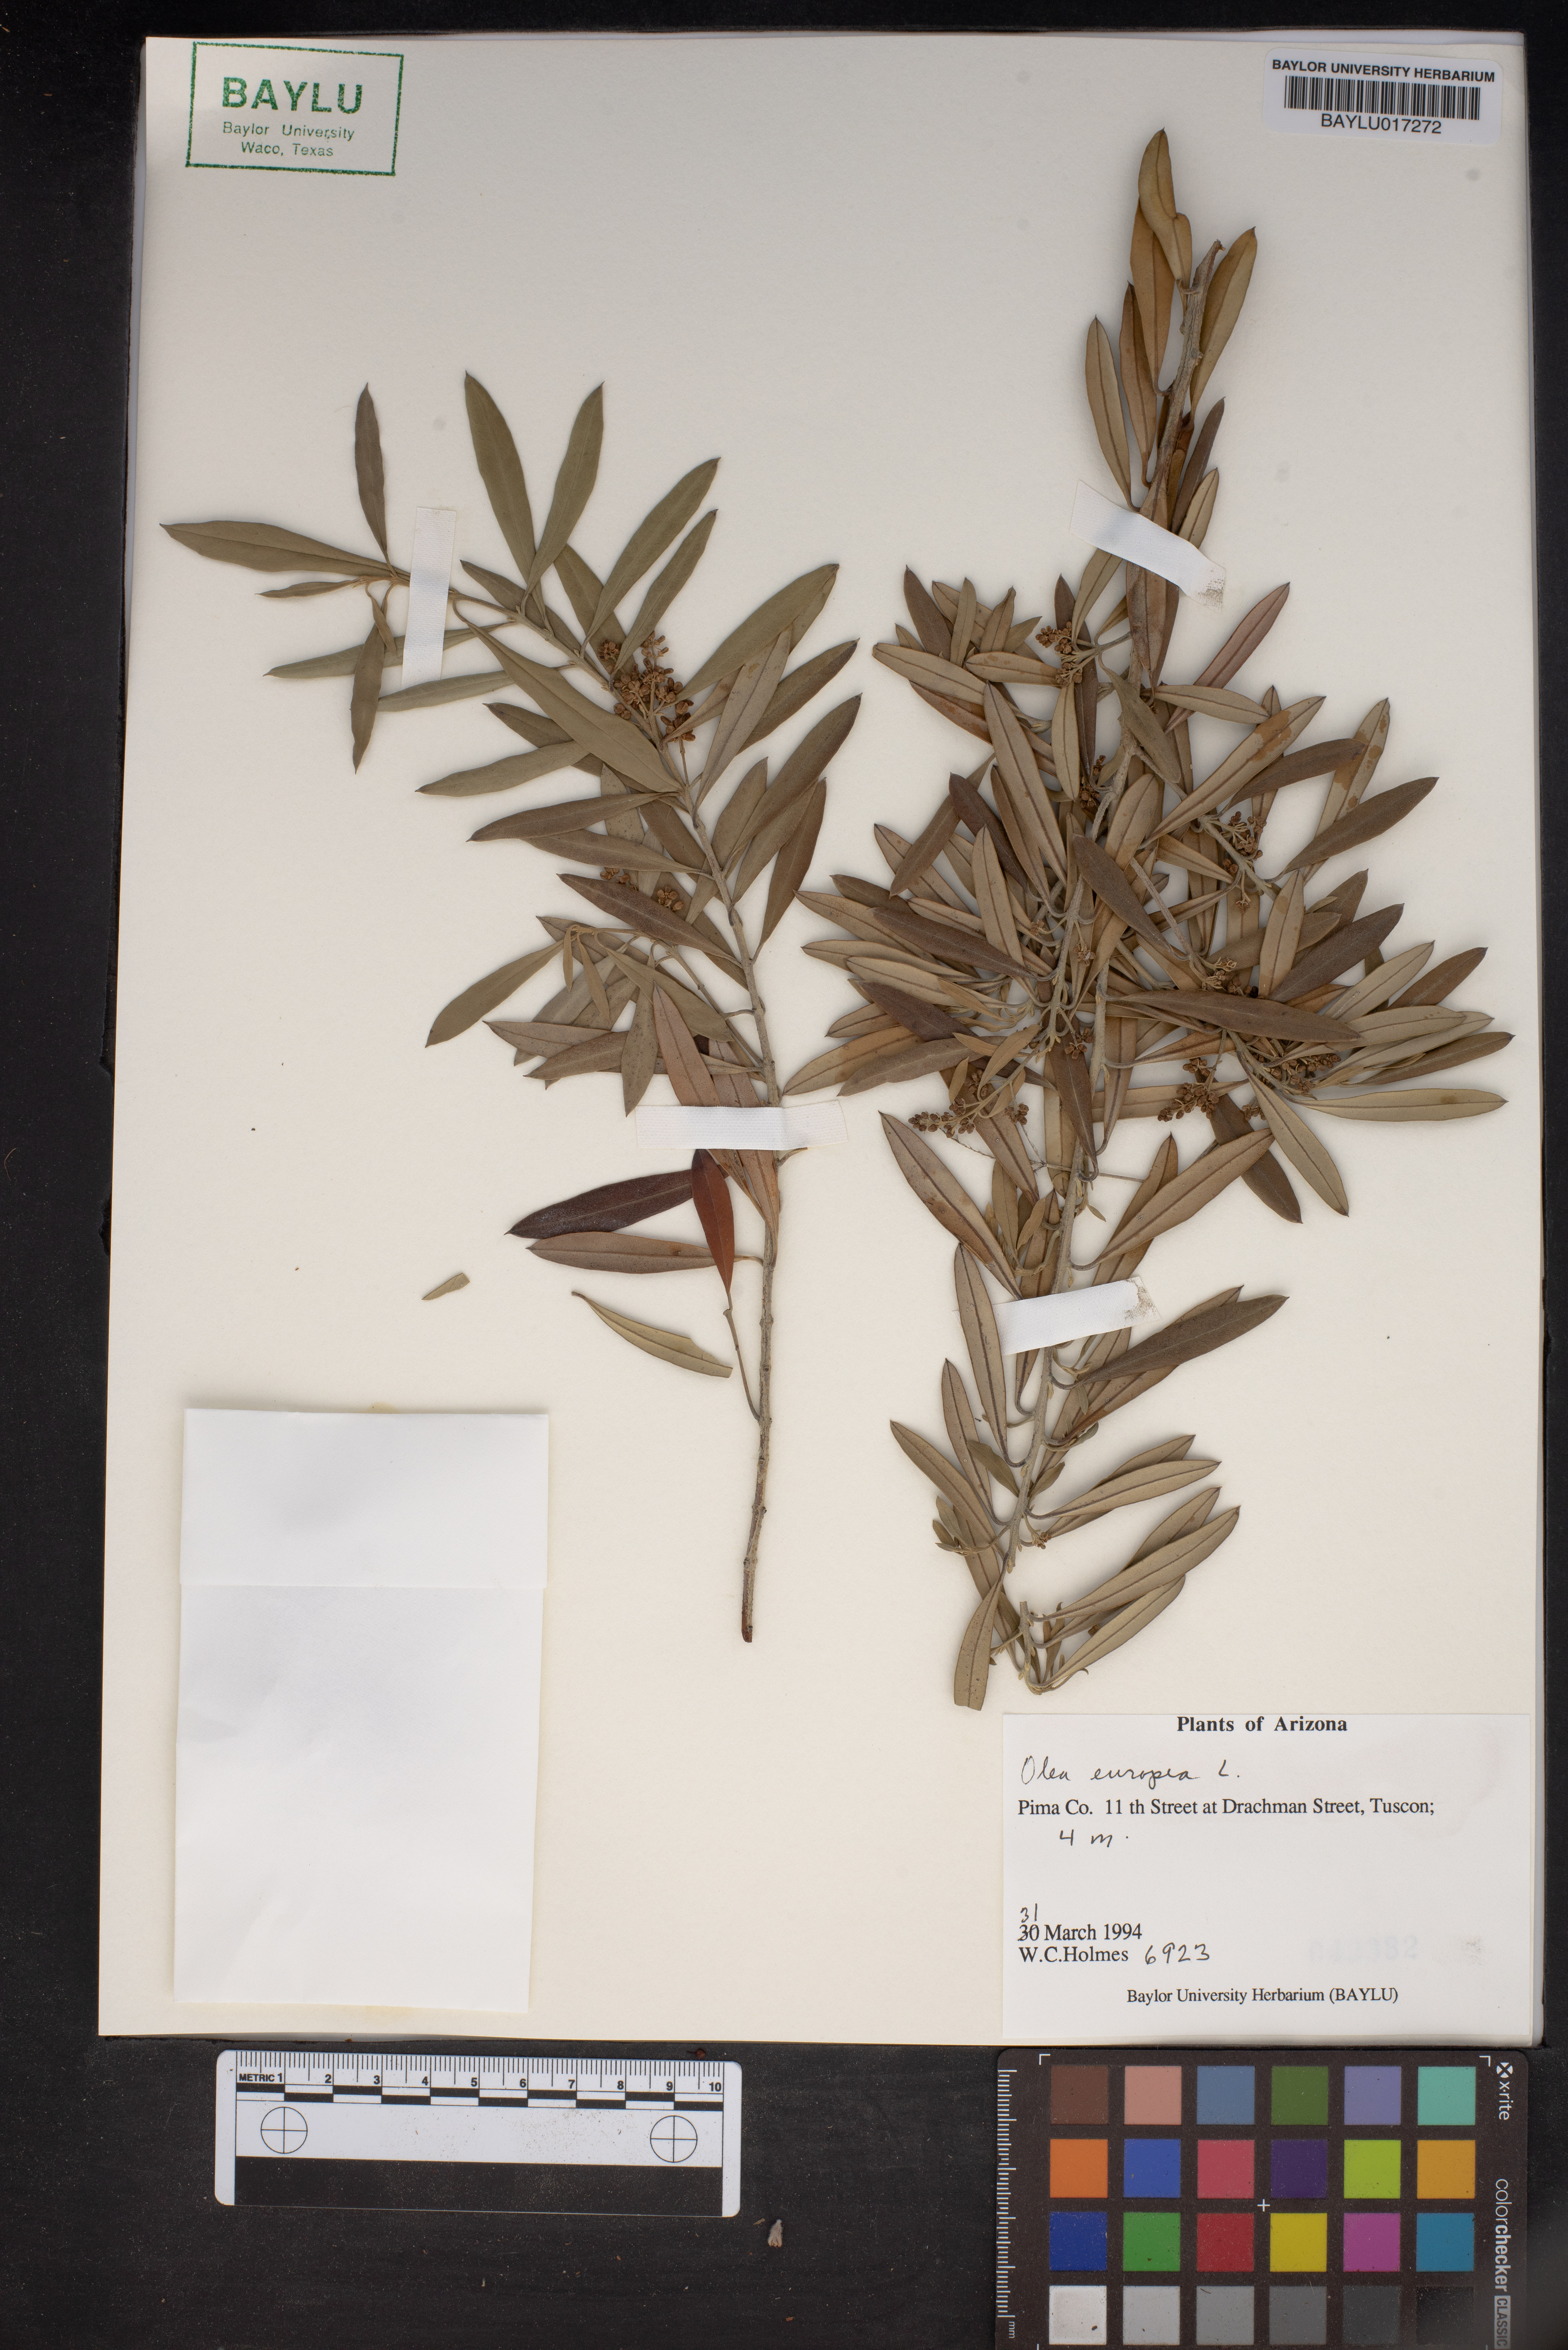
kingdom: Plantae
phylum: Tracheophyta
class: Magnoliopsida
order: Lamiales
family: Oleaceae
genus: Olea
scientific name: Olea europaea
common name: Olive
